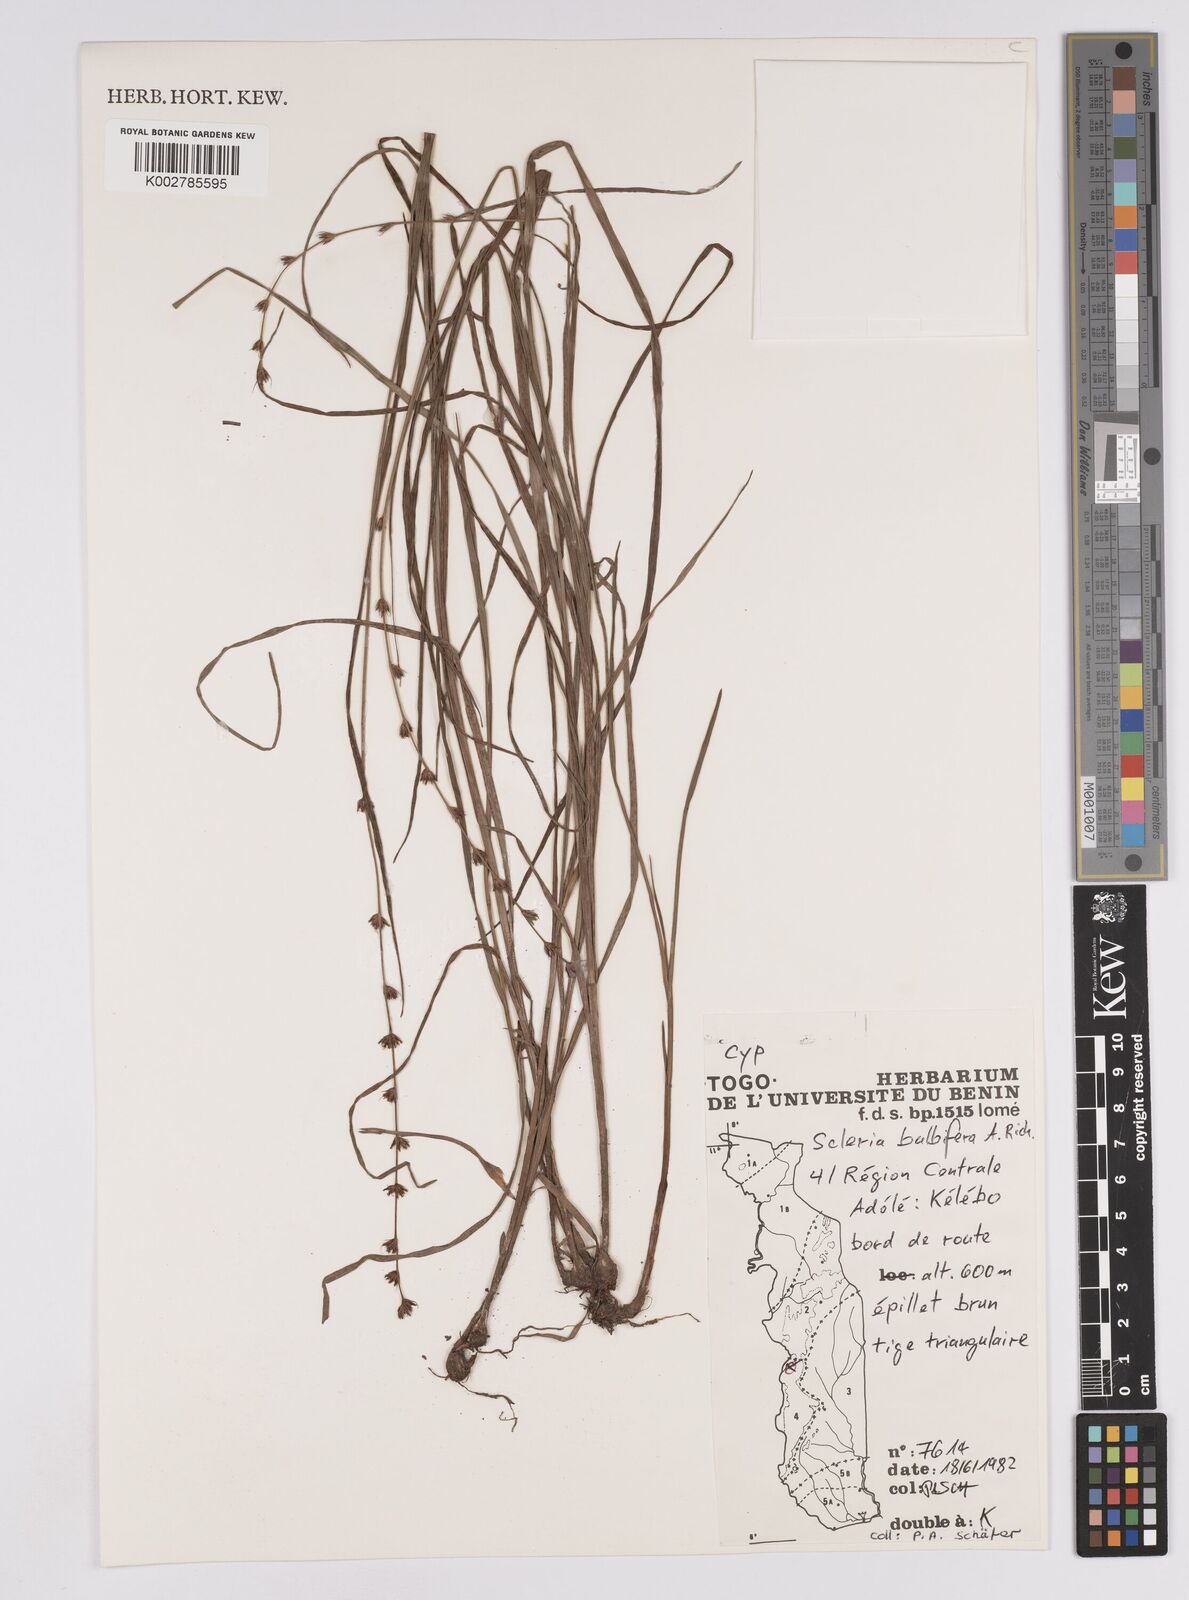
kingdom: Plantae
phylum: Tracheophyta
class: Liliopsida
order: Poales
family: Cyperaceae
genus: Scleria
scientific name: Scleria bulbifera
